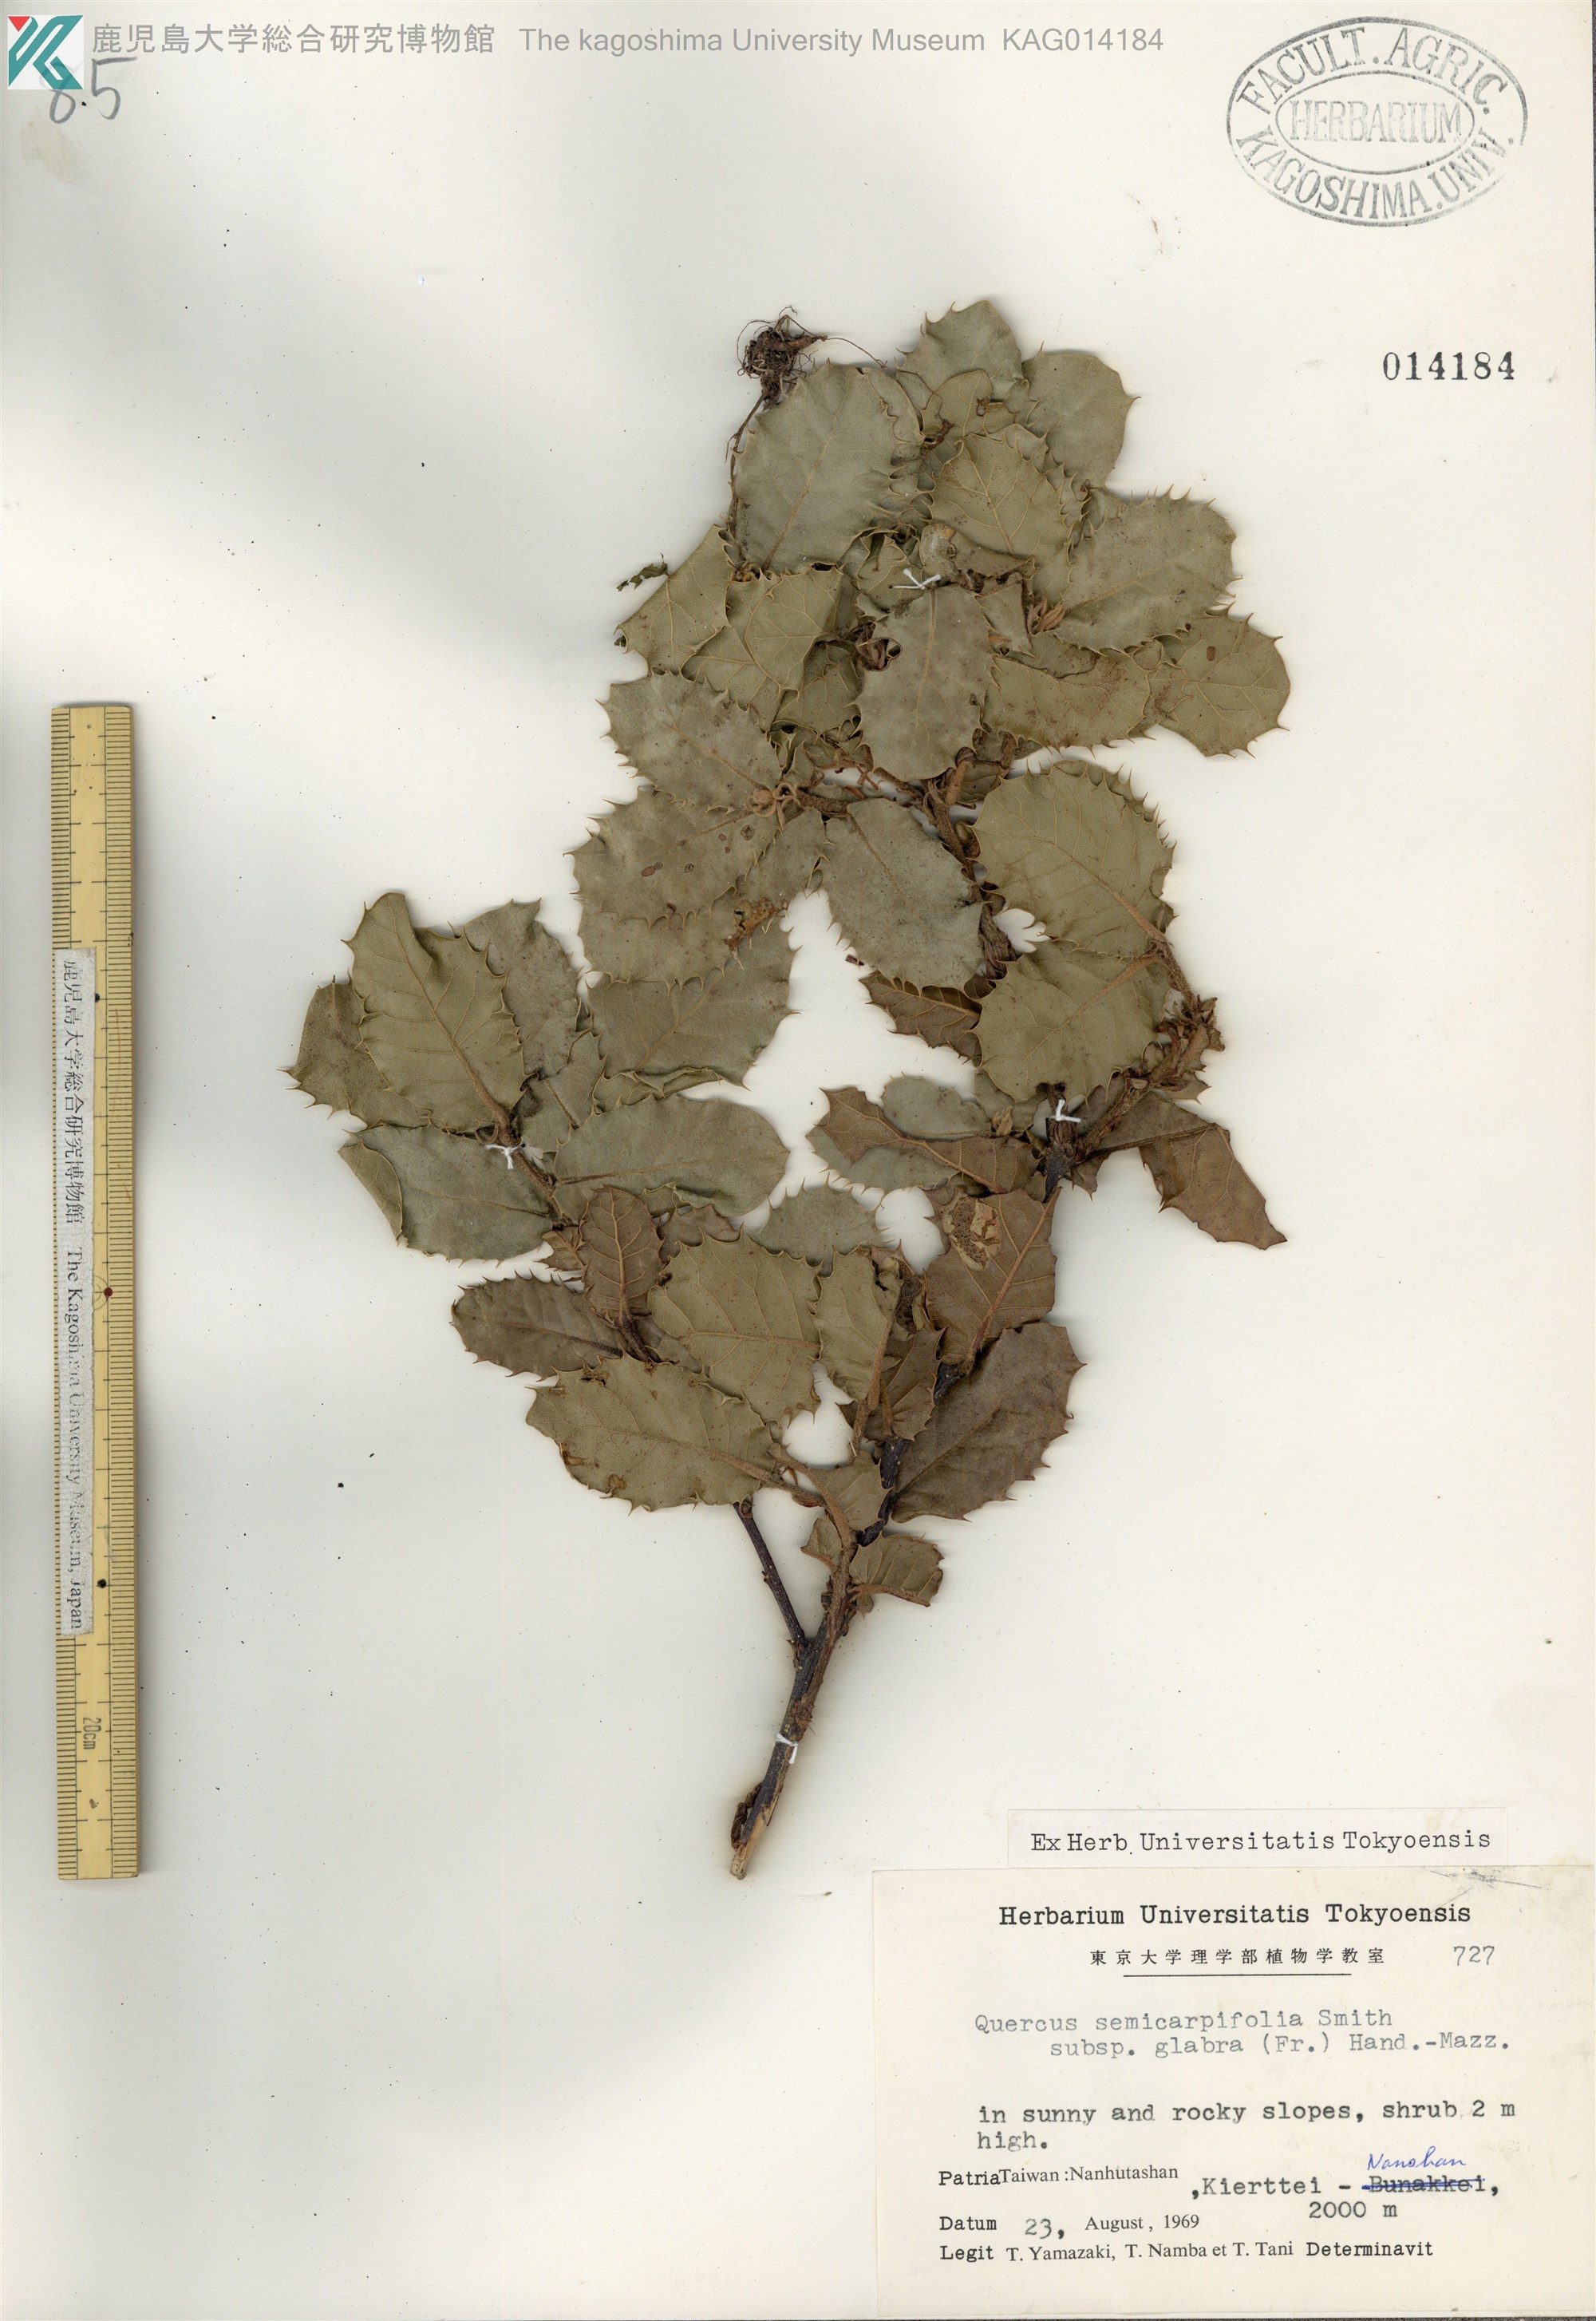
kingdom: Plantae
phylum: Tracheophyta
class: Magnoliopsida
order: Fagales
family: Fagaceae
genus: Quercus
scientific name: Quercus semecarpifolia
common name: Brown oak
